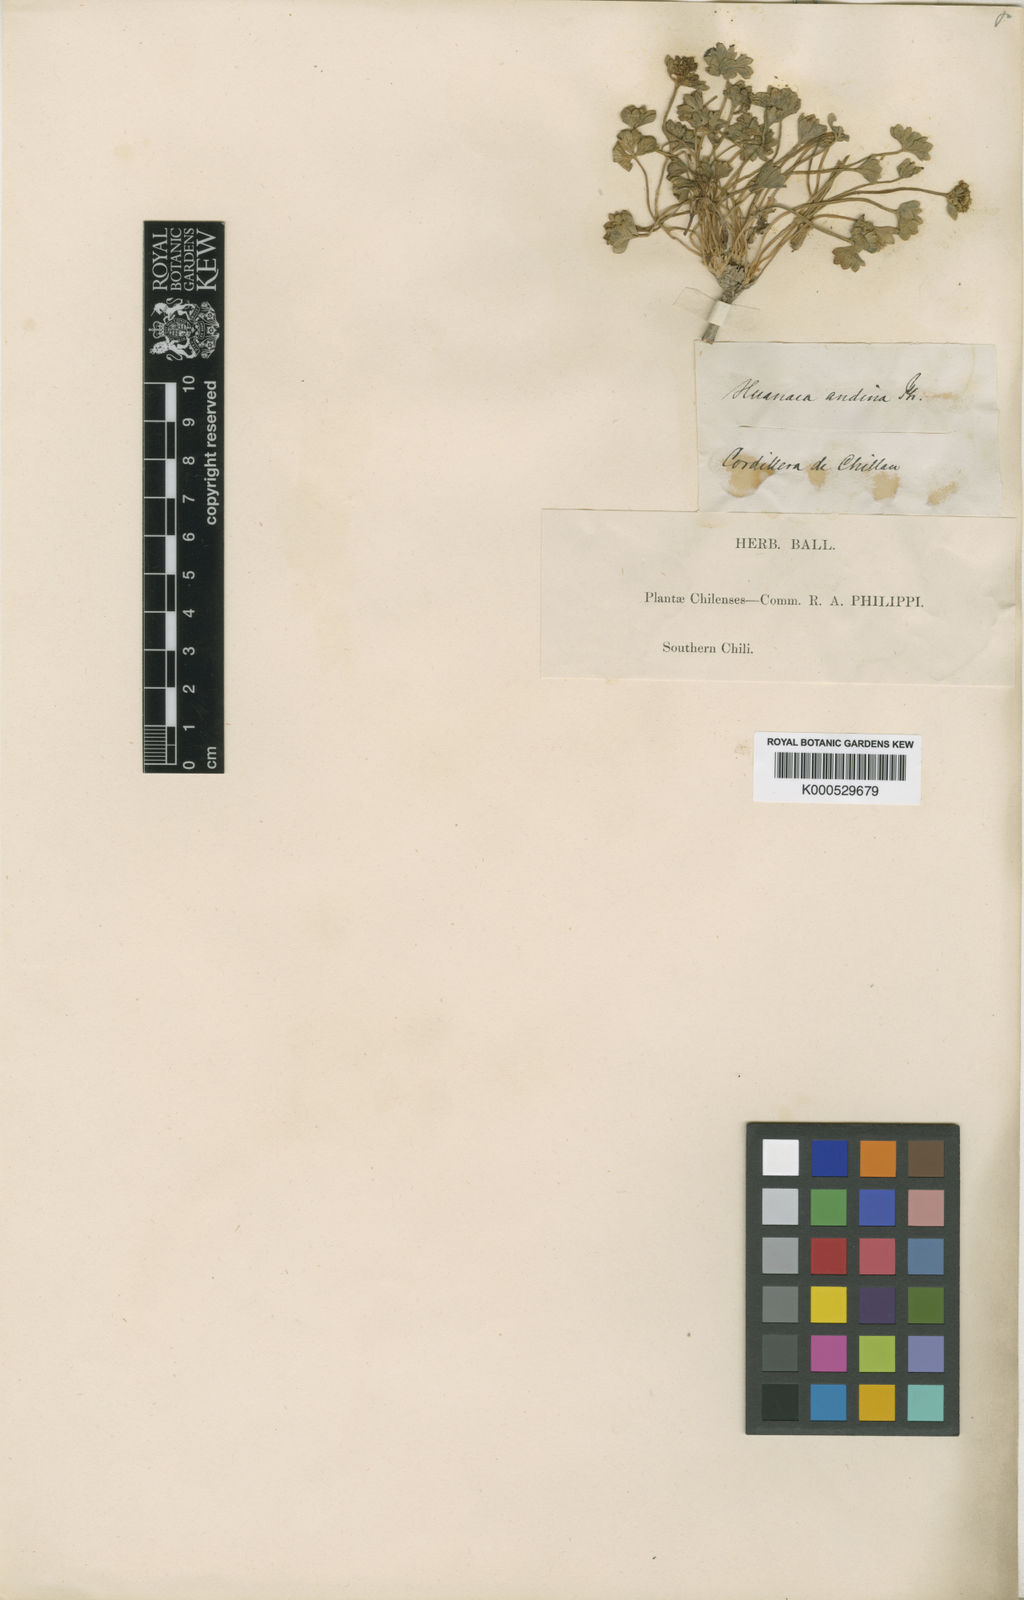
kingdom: Plantae
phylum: Tracheophyta
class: Magnoliopsida
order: Apiales
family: Apiaceae
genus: Azorella
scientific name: Azorella andina
